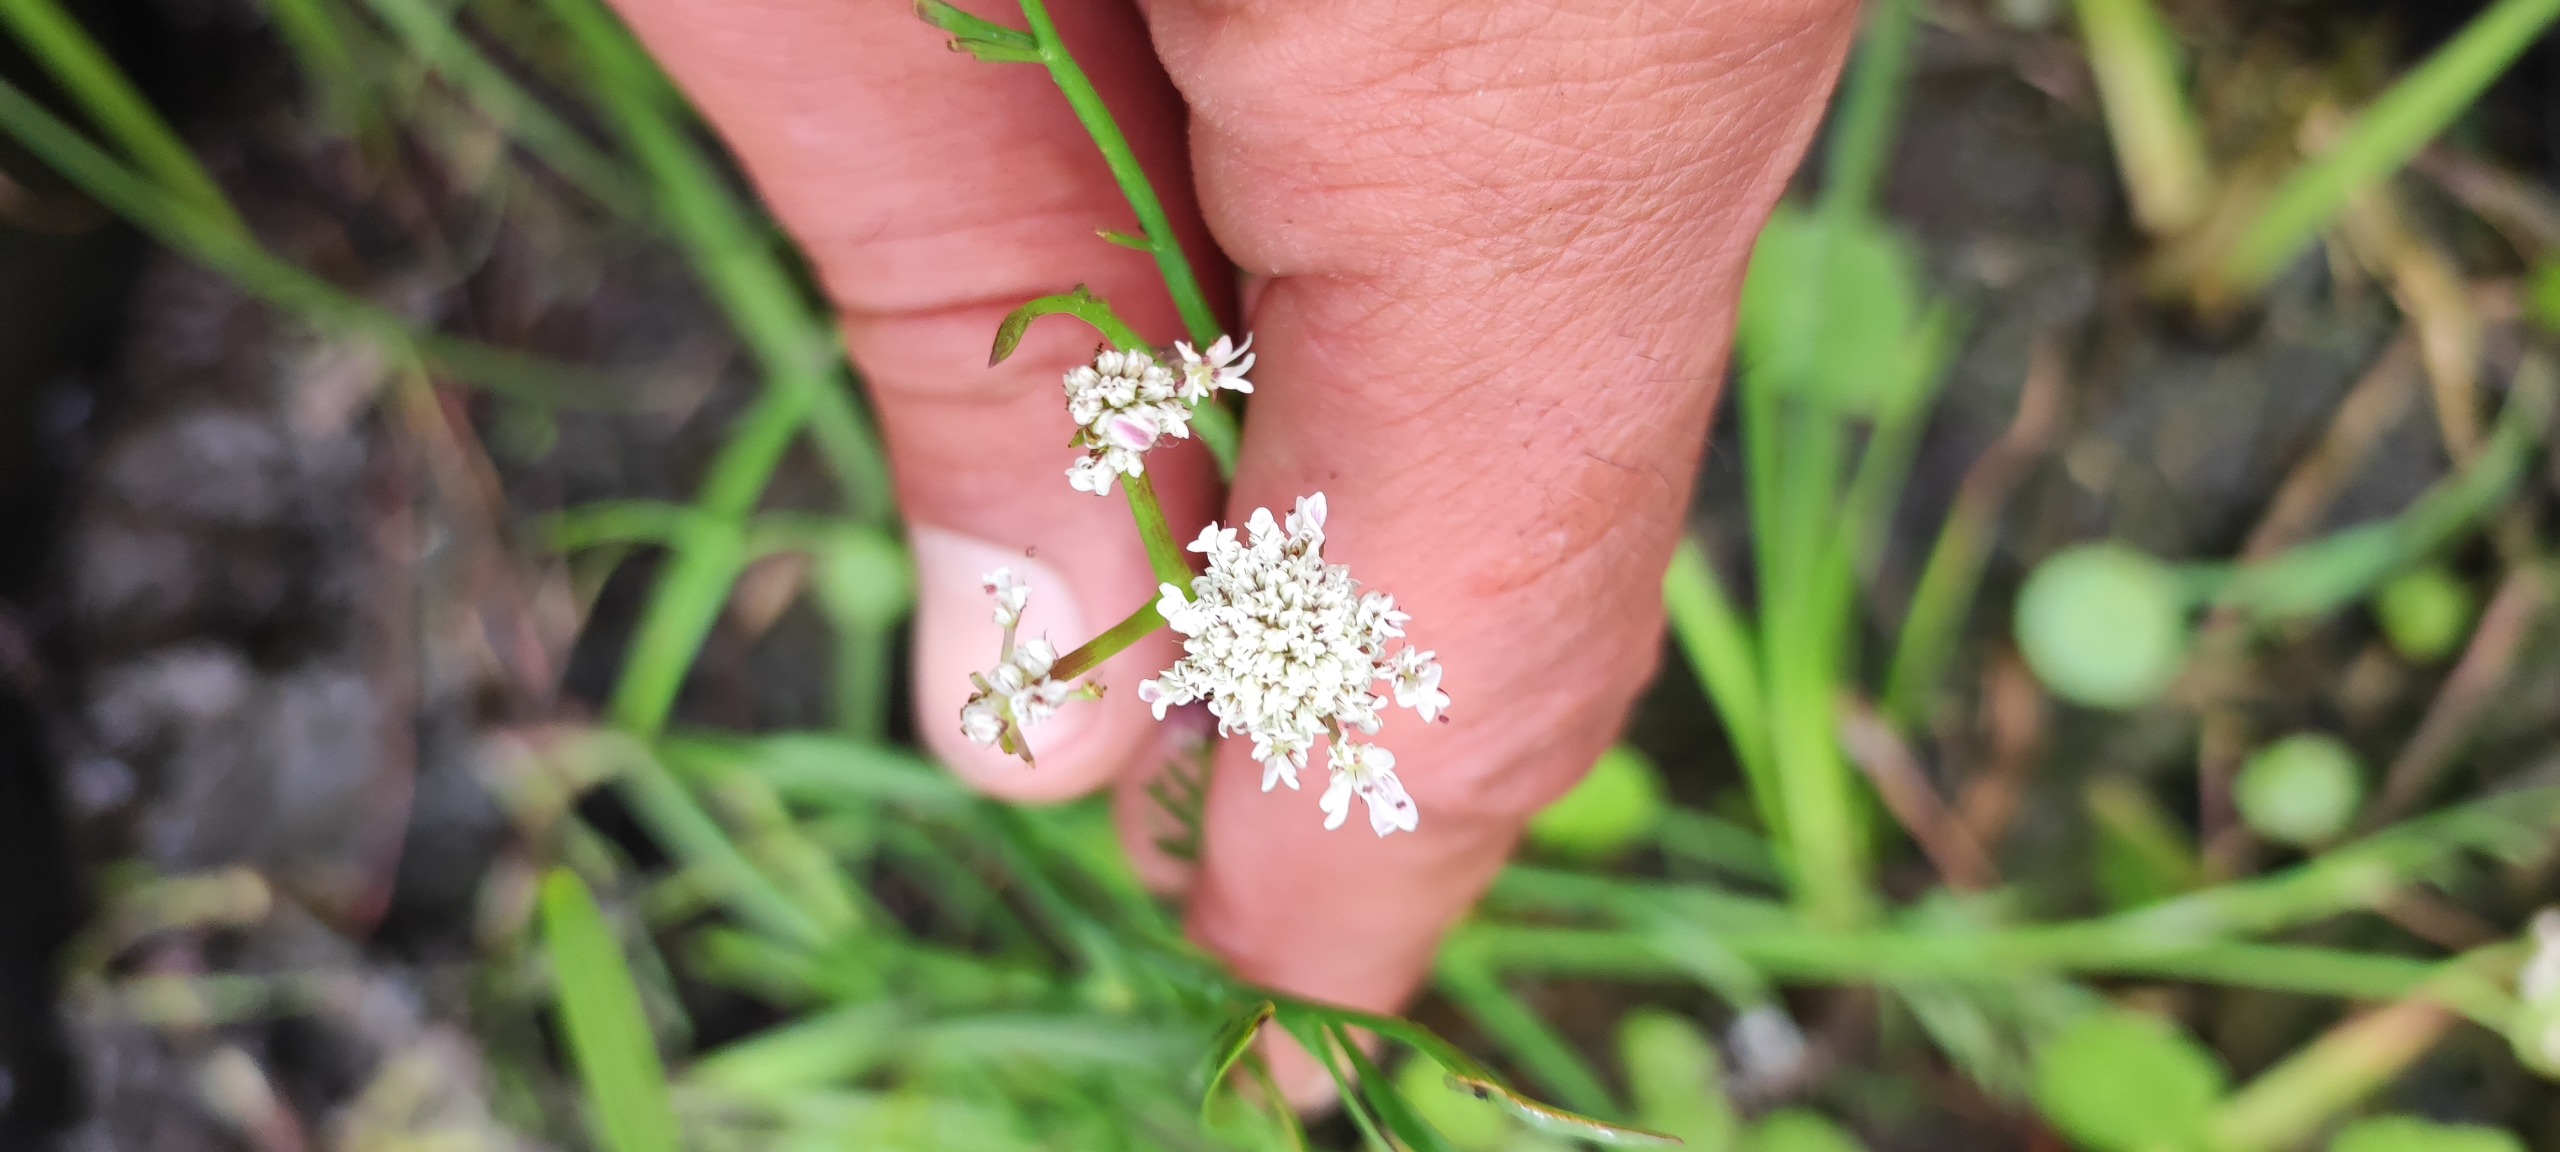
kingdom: Plantae
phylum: Tracheophyta
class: Magnoliopsida
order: Apiales
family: Apiaceae
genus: Oenanthe
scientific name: Oenanthe fistulosa
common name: Vand-klaseskærm
